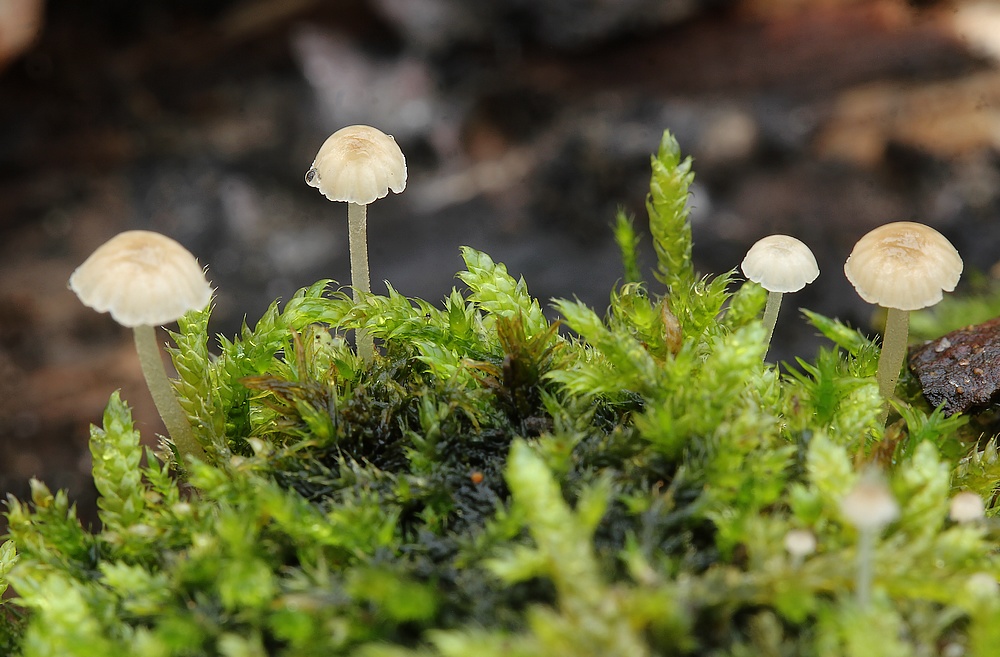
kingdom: Fungi
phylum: Basidiomycota
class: Agaricomycetes
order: Agaricales
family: Porotheleaceae
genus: Phloeomana
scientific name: Phloeomana speirea
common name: kvist-huesvamp
